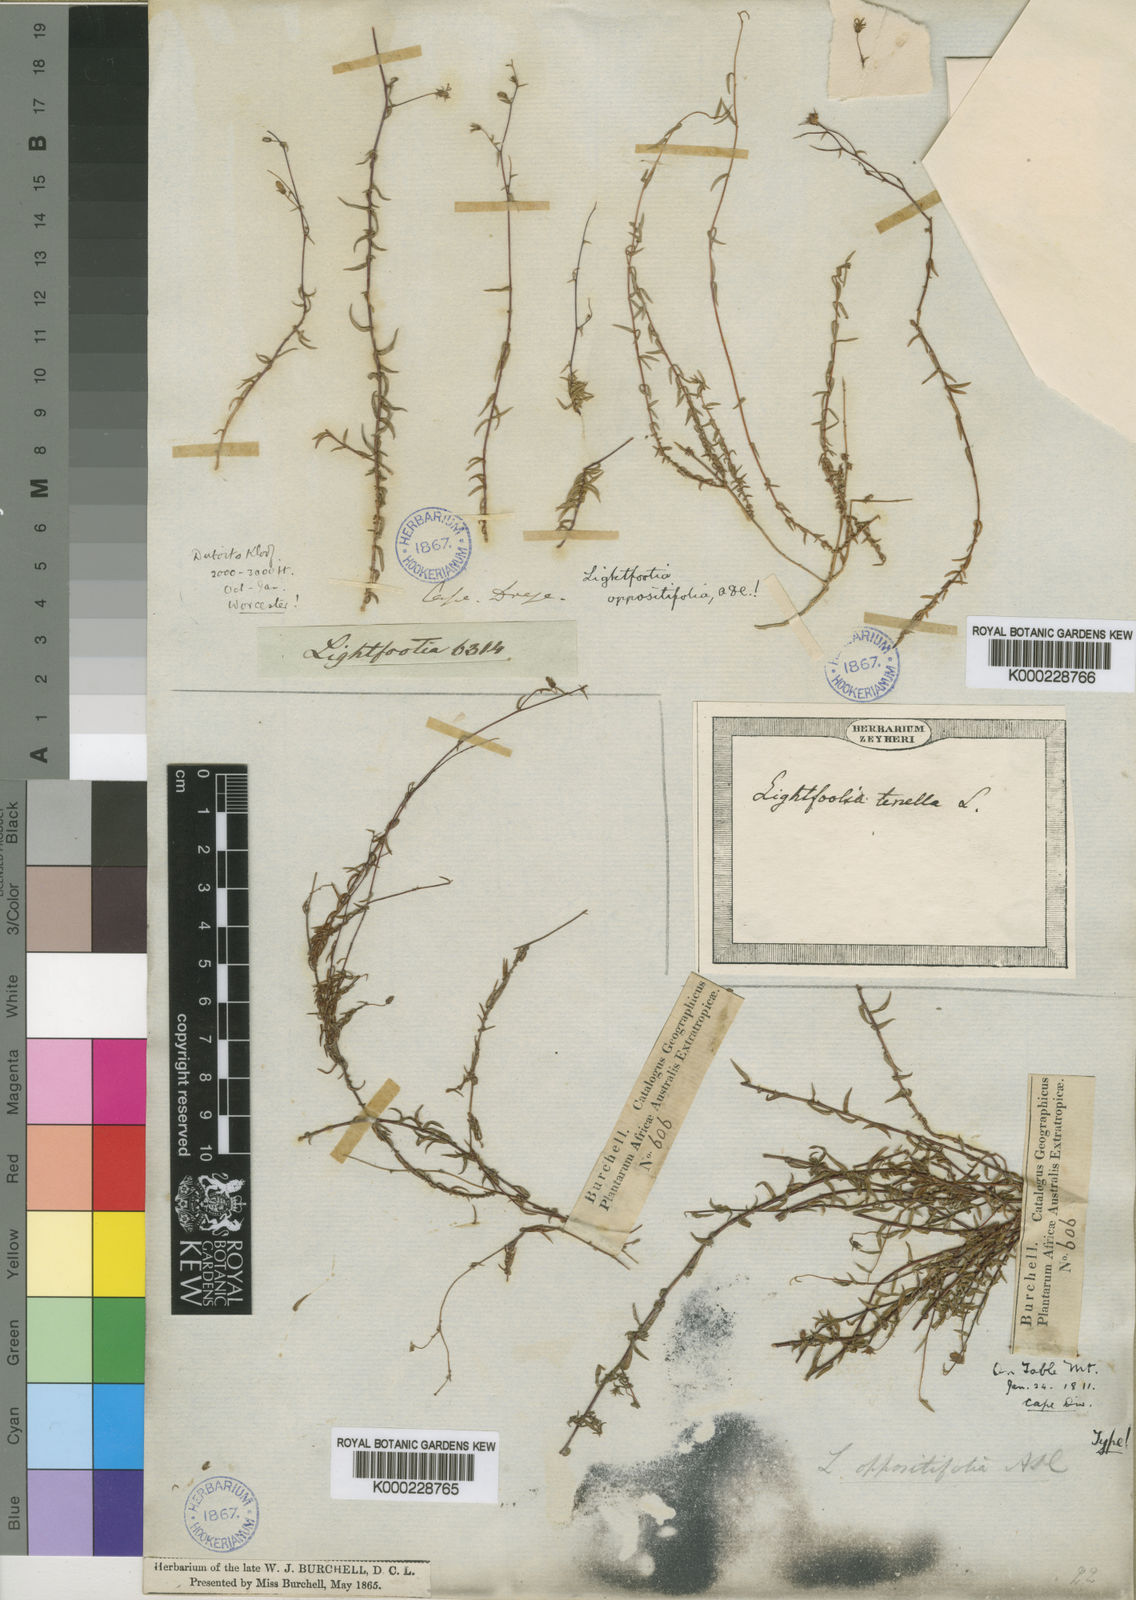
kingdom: Plantae
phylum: Tracheophyta
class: Magnoliopsida
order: Asterales
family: Campanulaceae
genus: Wahlenbergia
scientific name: Wahlenbergia thulinii
